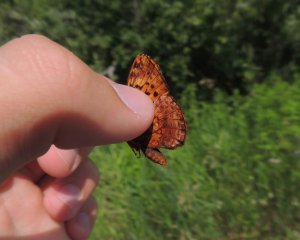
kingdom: Animalia
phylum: Arthropoda
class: Insecta
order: Lepidoptera
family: Nymphalidae
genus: Clossiana
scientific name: Clossiana toddi
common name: Meadow Fritillary
